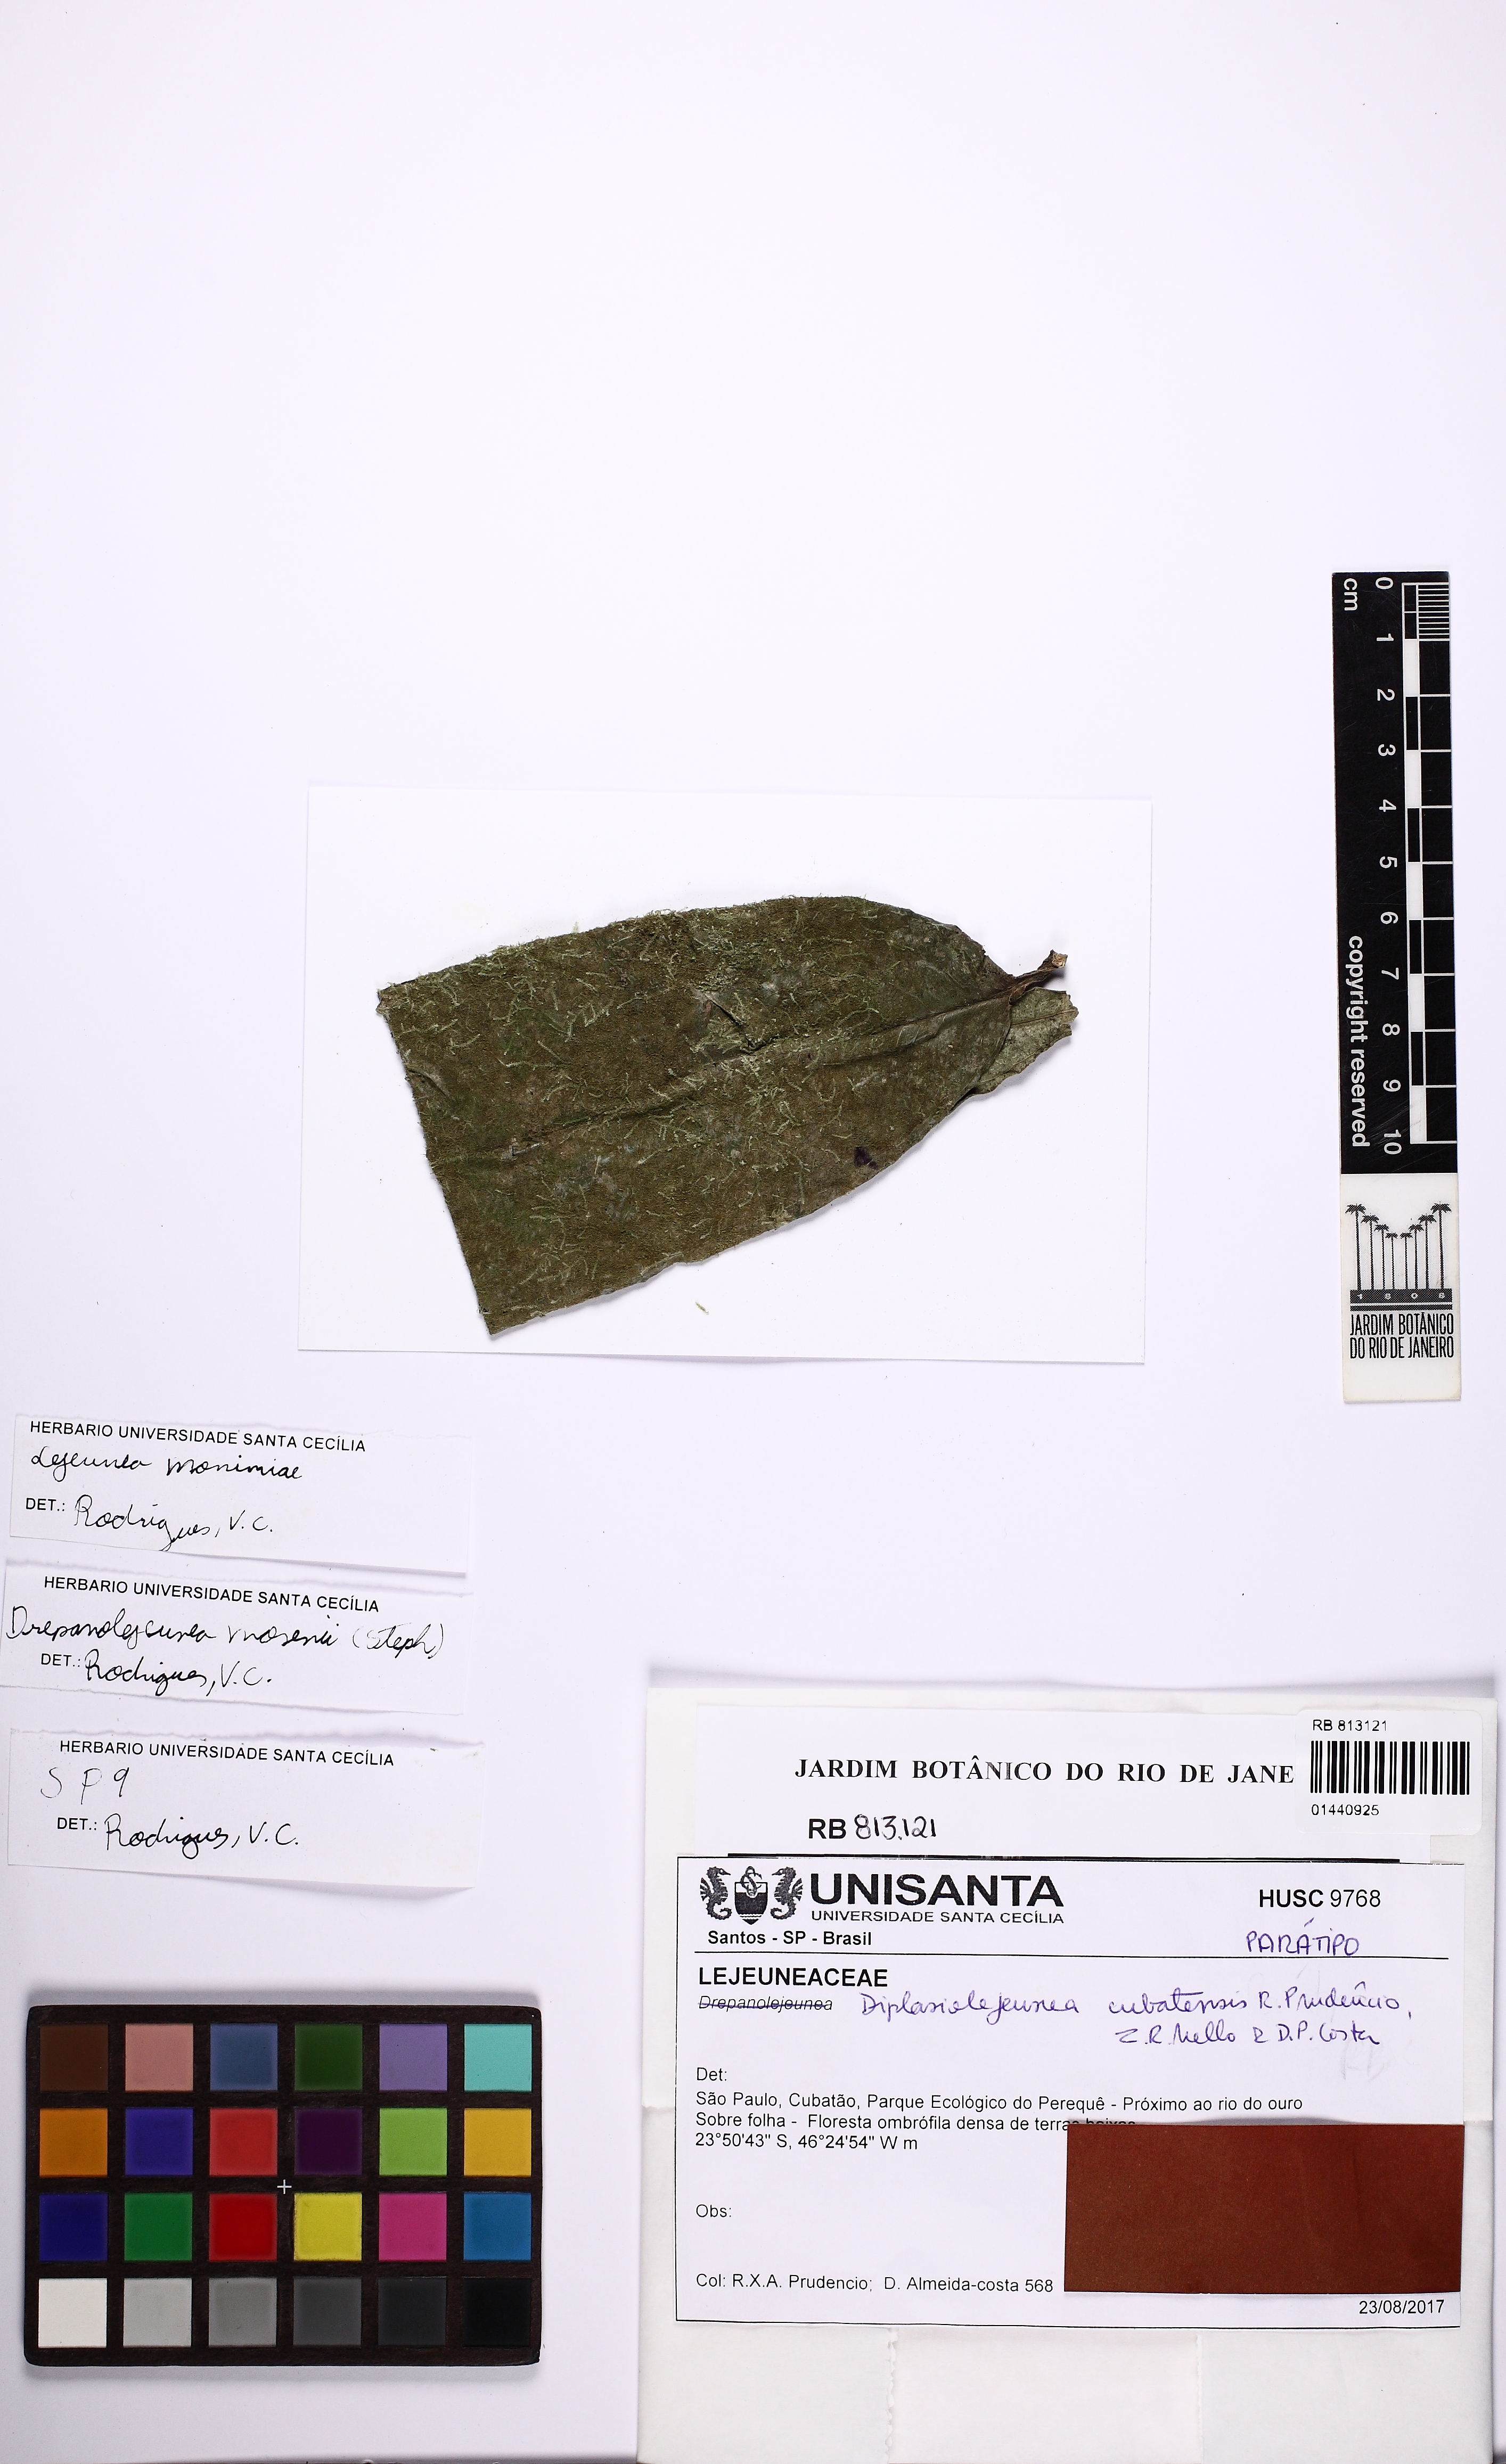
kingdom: Plantae
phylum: Marchantiophyta
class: Jungermanniopsida
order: Porellales
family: Lejeuneaceae
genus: Diplasiolejeunea
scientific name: Diplasiolejeunea cubatensis
